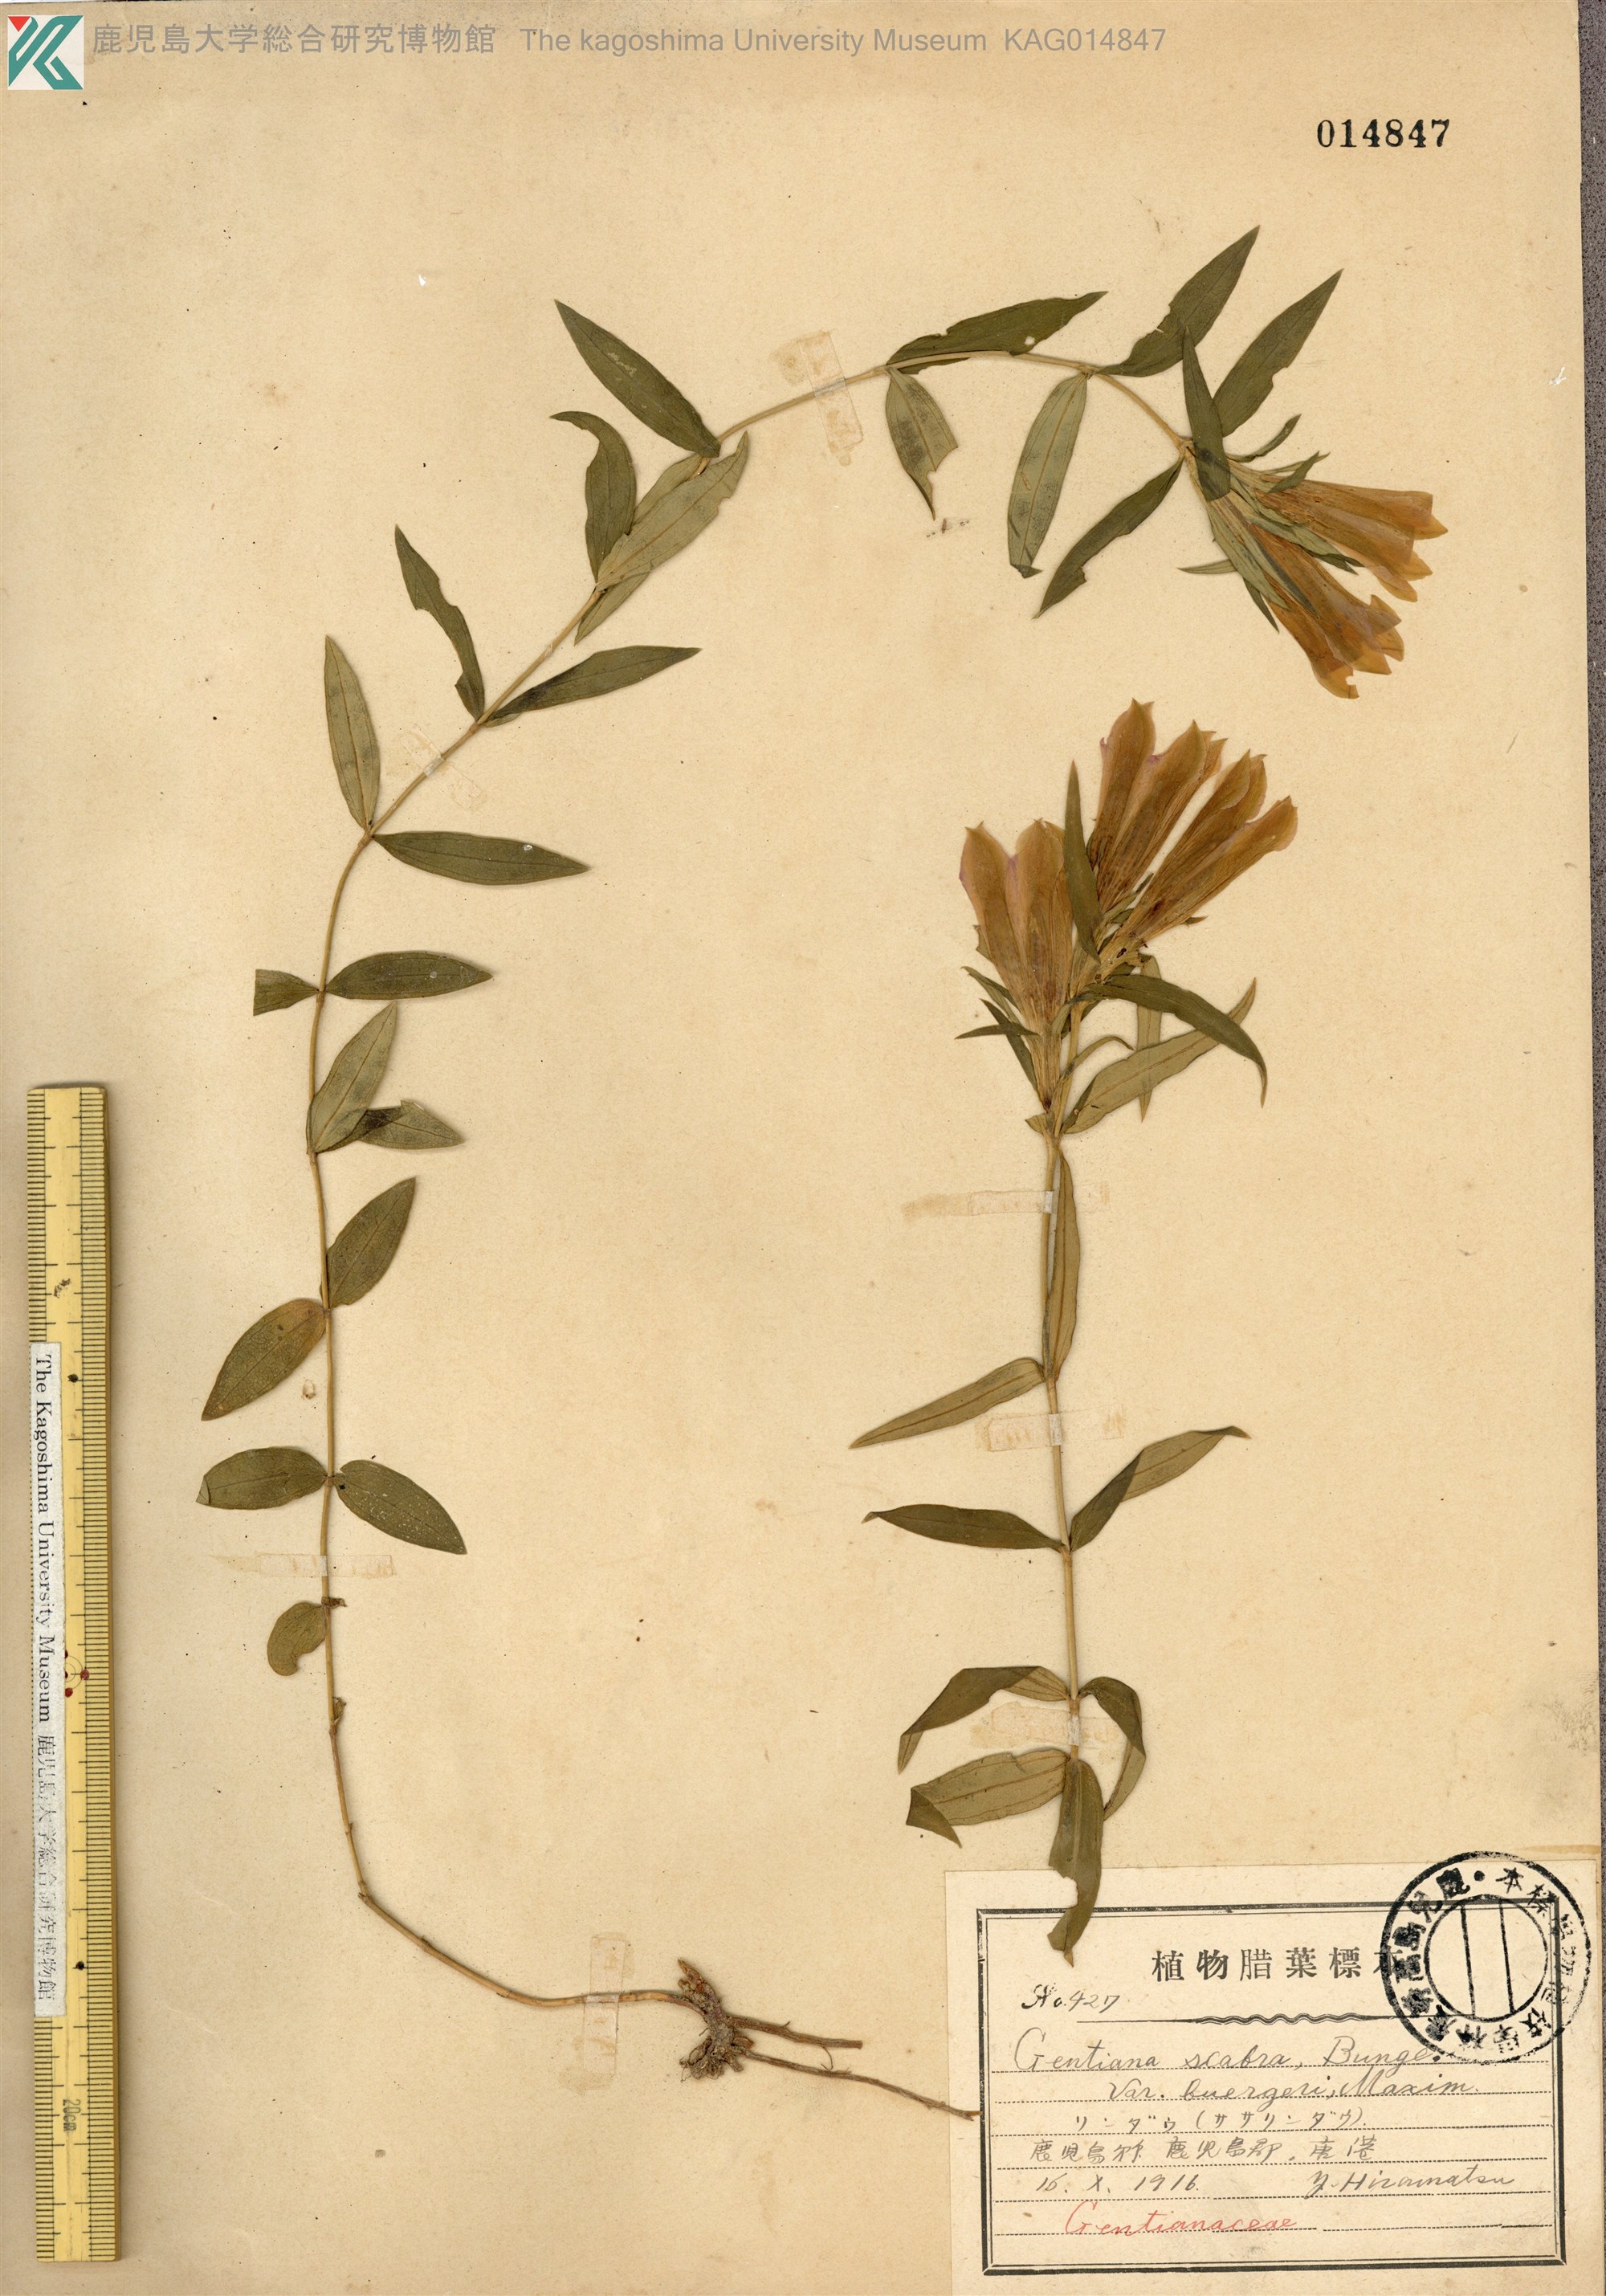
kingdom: Plantae
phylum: Tracheophyta
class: Magnoliopsida
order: Gentianales
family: Gentianaceae
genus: Gentiana
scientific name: Gentiana scabra
